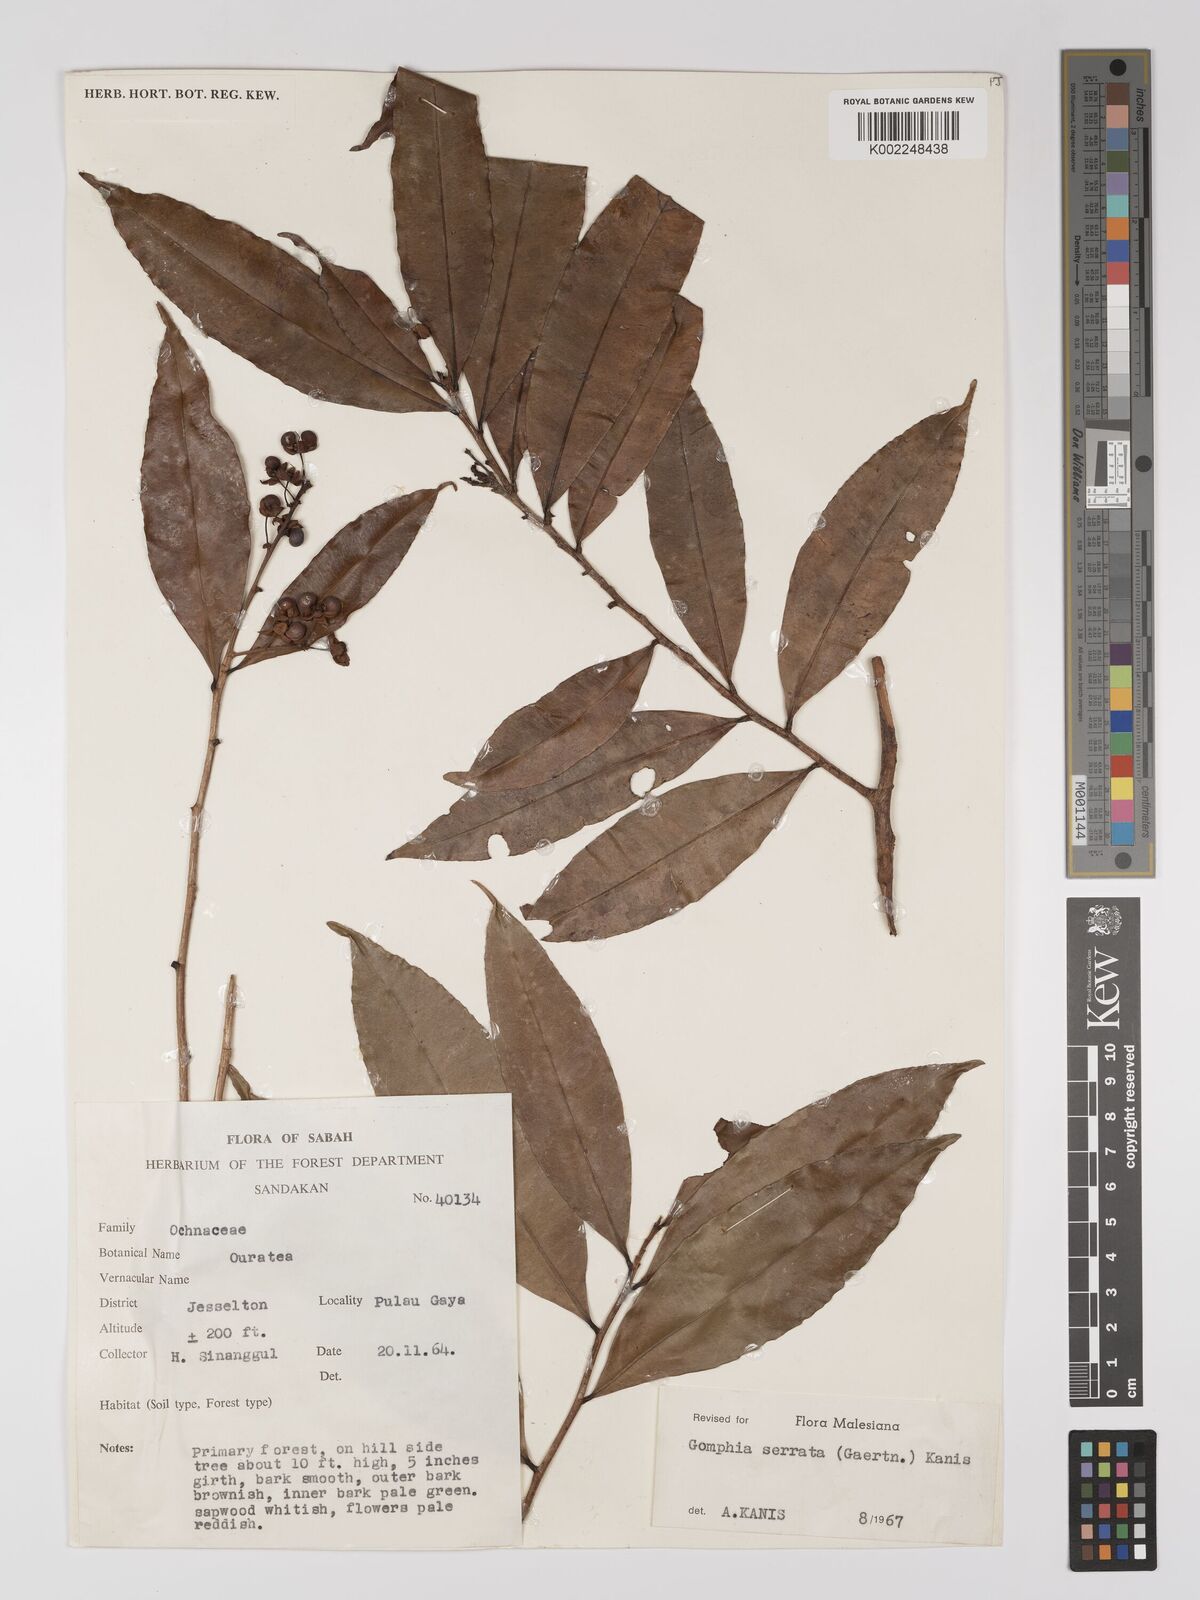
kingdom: Plantae
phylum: Tracheophyta
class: Magnoliopsida
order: Malpighiales
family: Ochnaceae
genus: Gomphia
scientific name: Gomphia serrata
